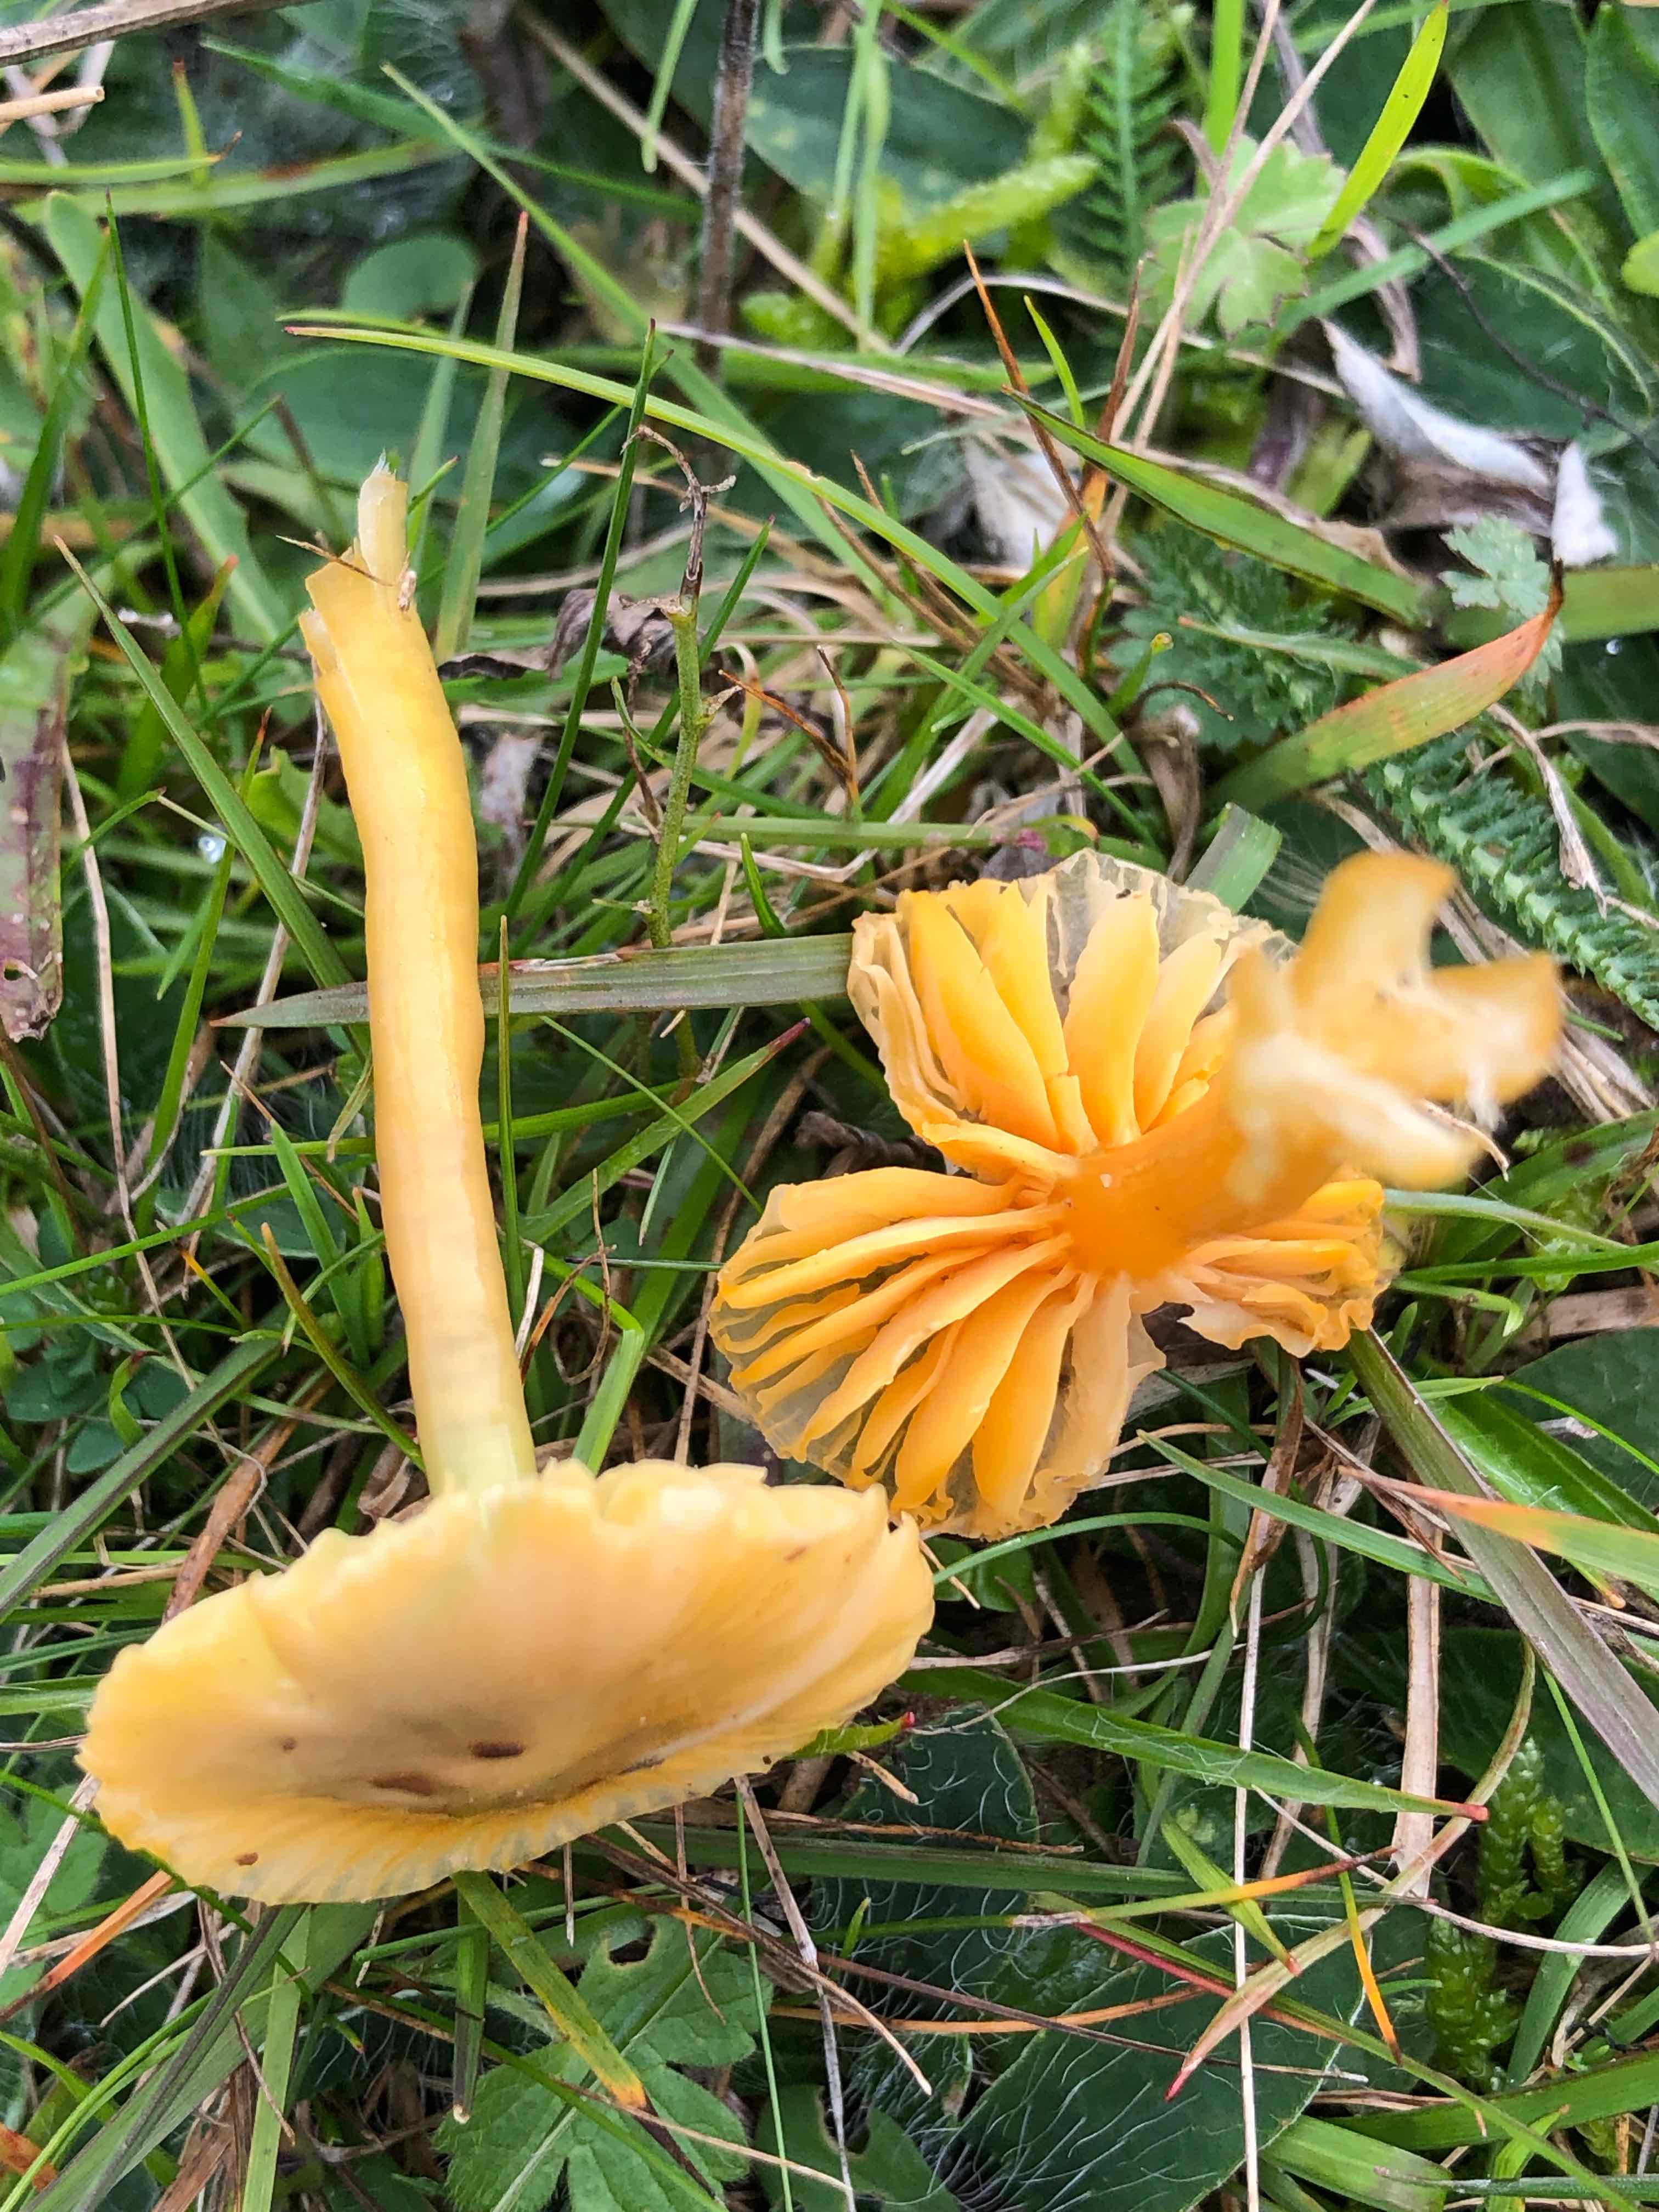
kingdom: Fungi
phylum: Basidiomycota
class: Agaricomycetes
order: Agaricales
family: Hygrophoraceae
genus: Hygrocybe
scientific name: Hygrocybe ceracea
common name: voksgul vokshat
